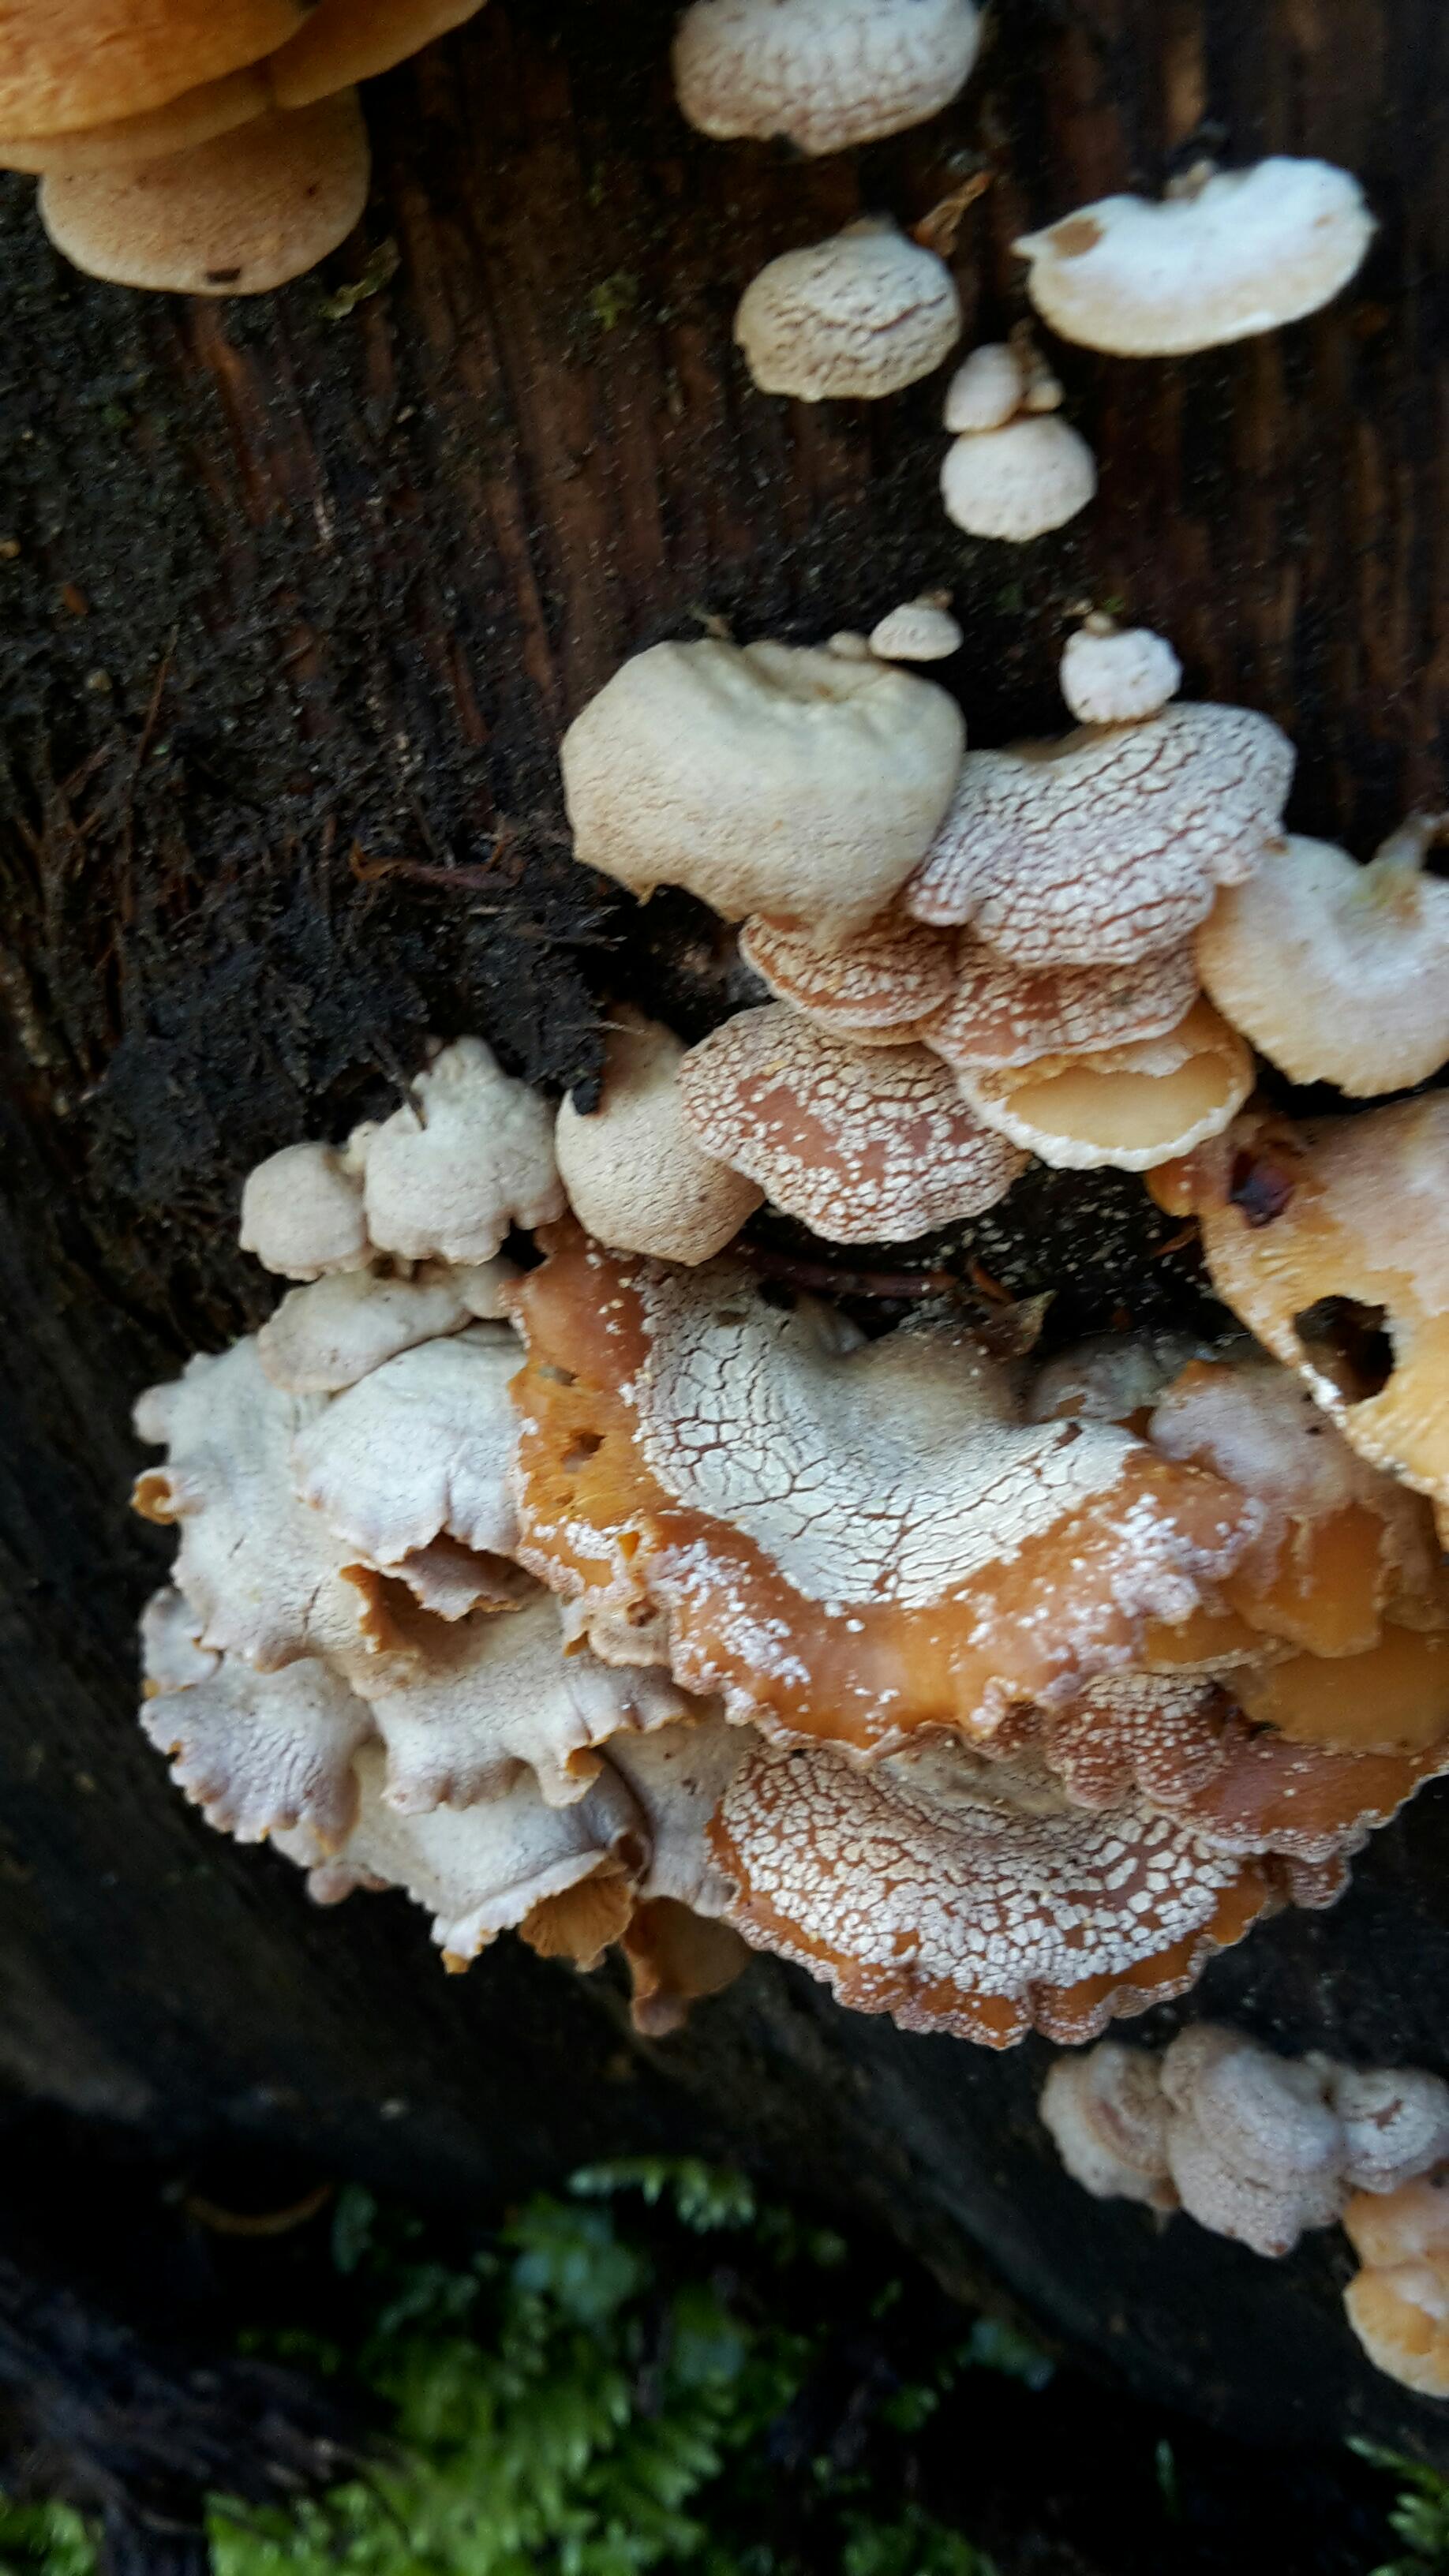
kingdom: Fungi
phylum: Basidiomycota
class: Agaricomycetes
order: Agaricales
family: Mycenaceae
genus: Panellus
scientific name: Panellus stipticus
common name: kliddet epaulethat
